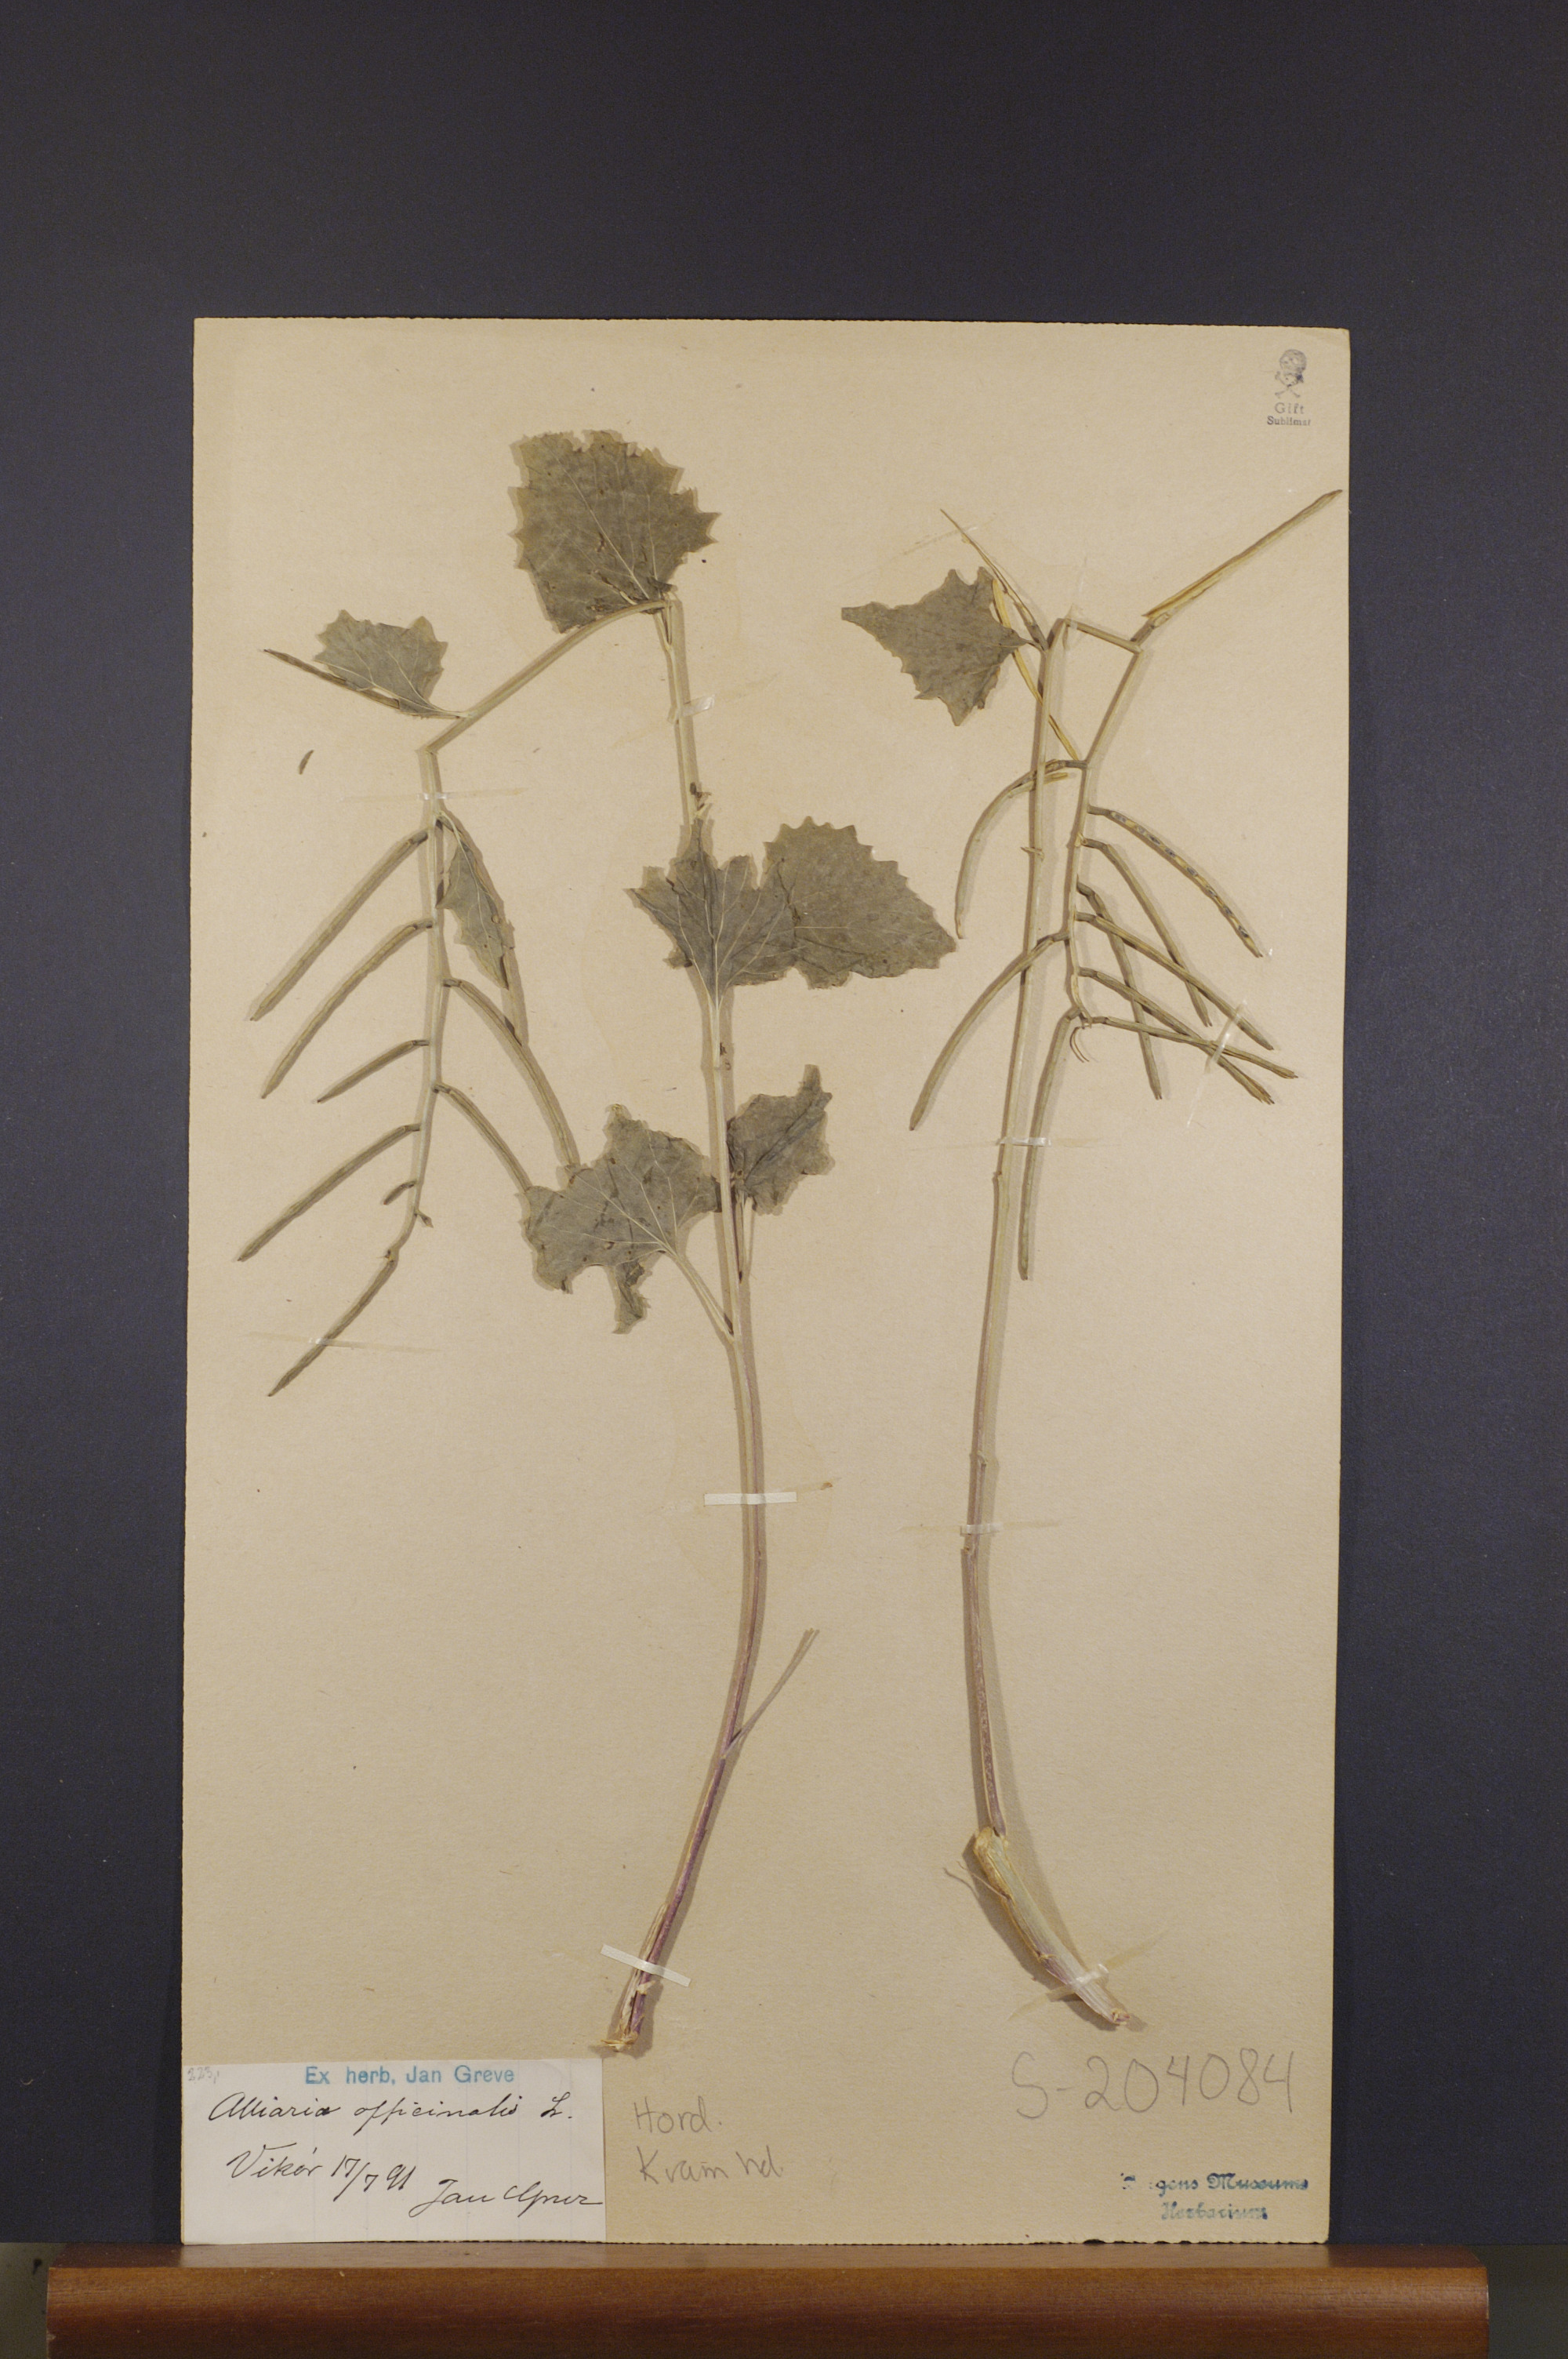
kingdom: Plantae
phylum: Tracheophyta
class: Magnoliopsida
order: Brassicales
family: Brassicaceae
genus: Alliaria
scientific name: Alliaria petiolata
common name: Garlic mustard
